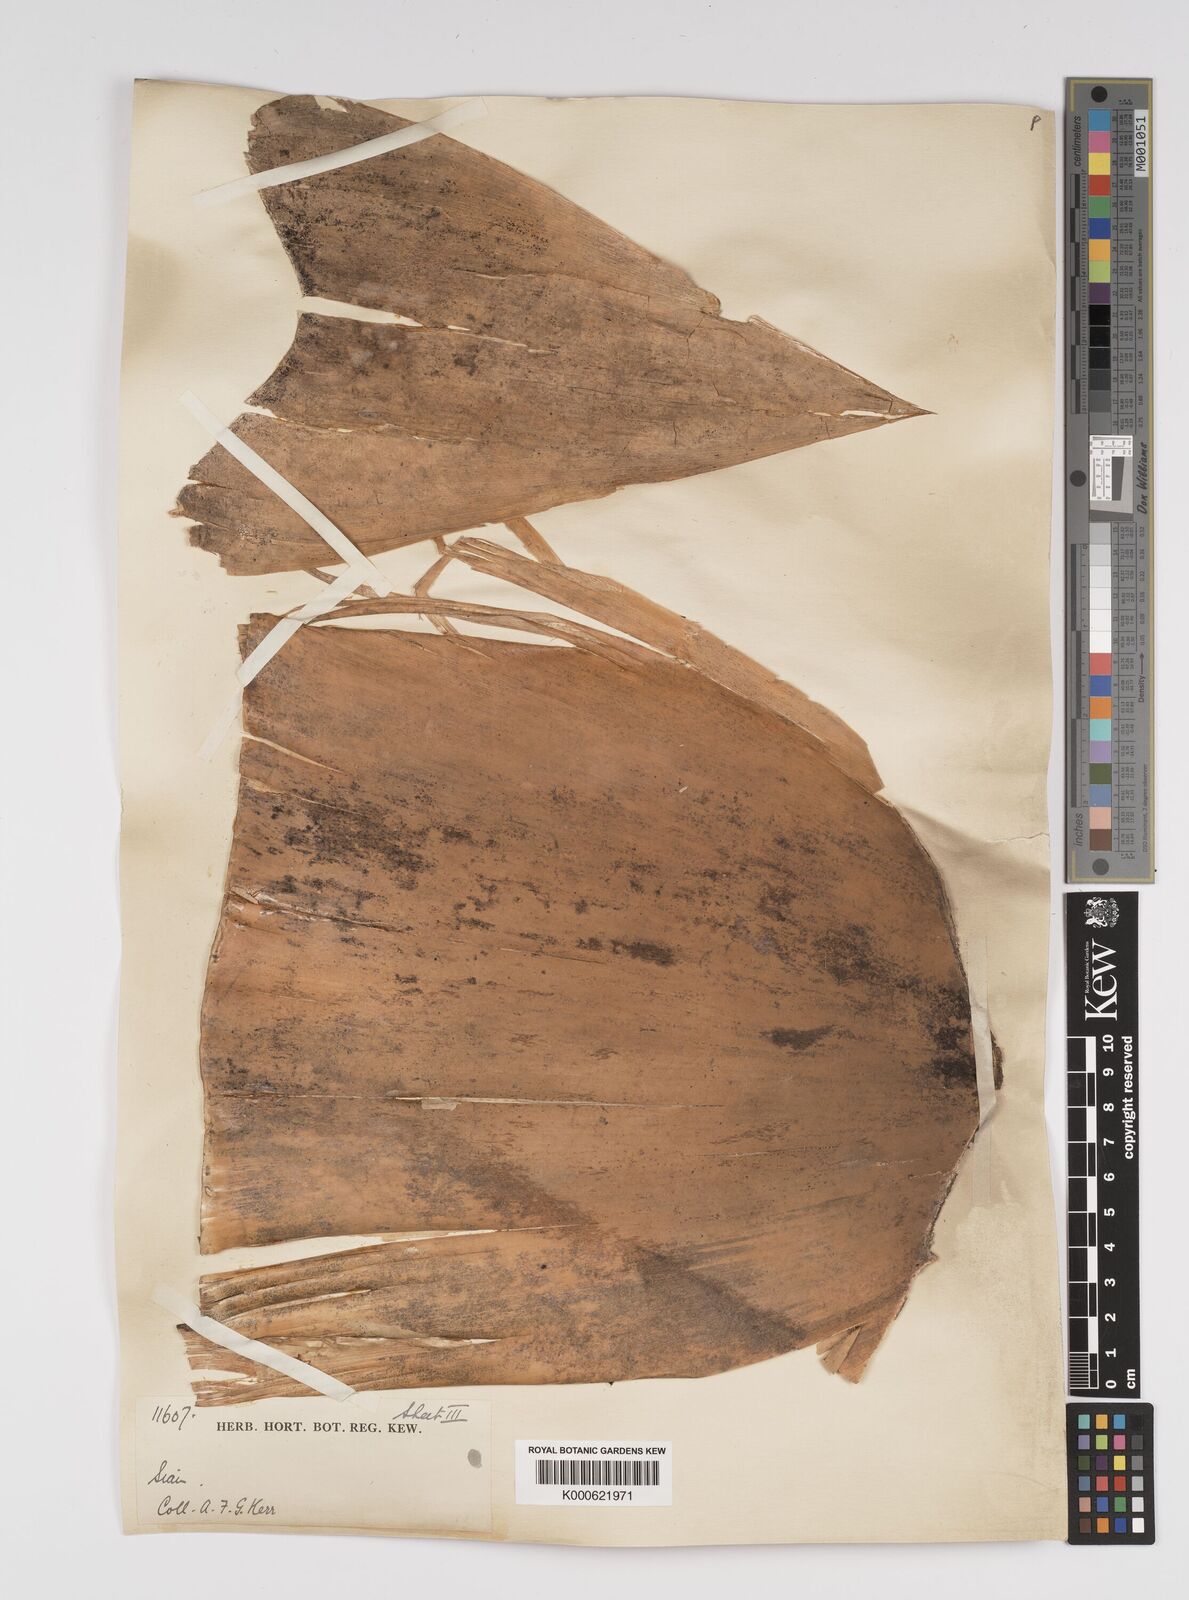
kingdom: Plantae
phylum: Tracheophyta
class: Liliopsida
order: Poales
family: Poaceae
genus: Bambusa
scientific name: Bambusa
